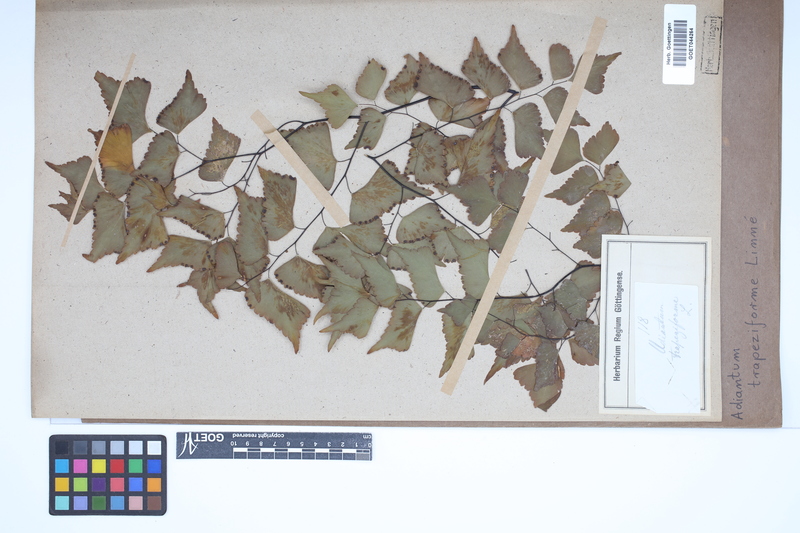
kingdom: Plantae
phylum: Tracheophyta
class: Polypodiopsida
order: Polypodiales
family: Pteridaceae
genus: Adiantum
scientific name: Adiantum trapeziforme
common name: Diamond maidenhair
